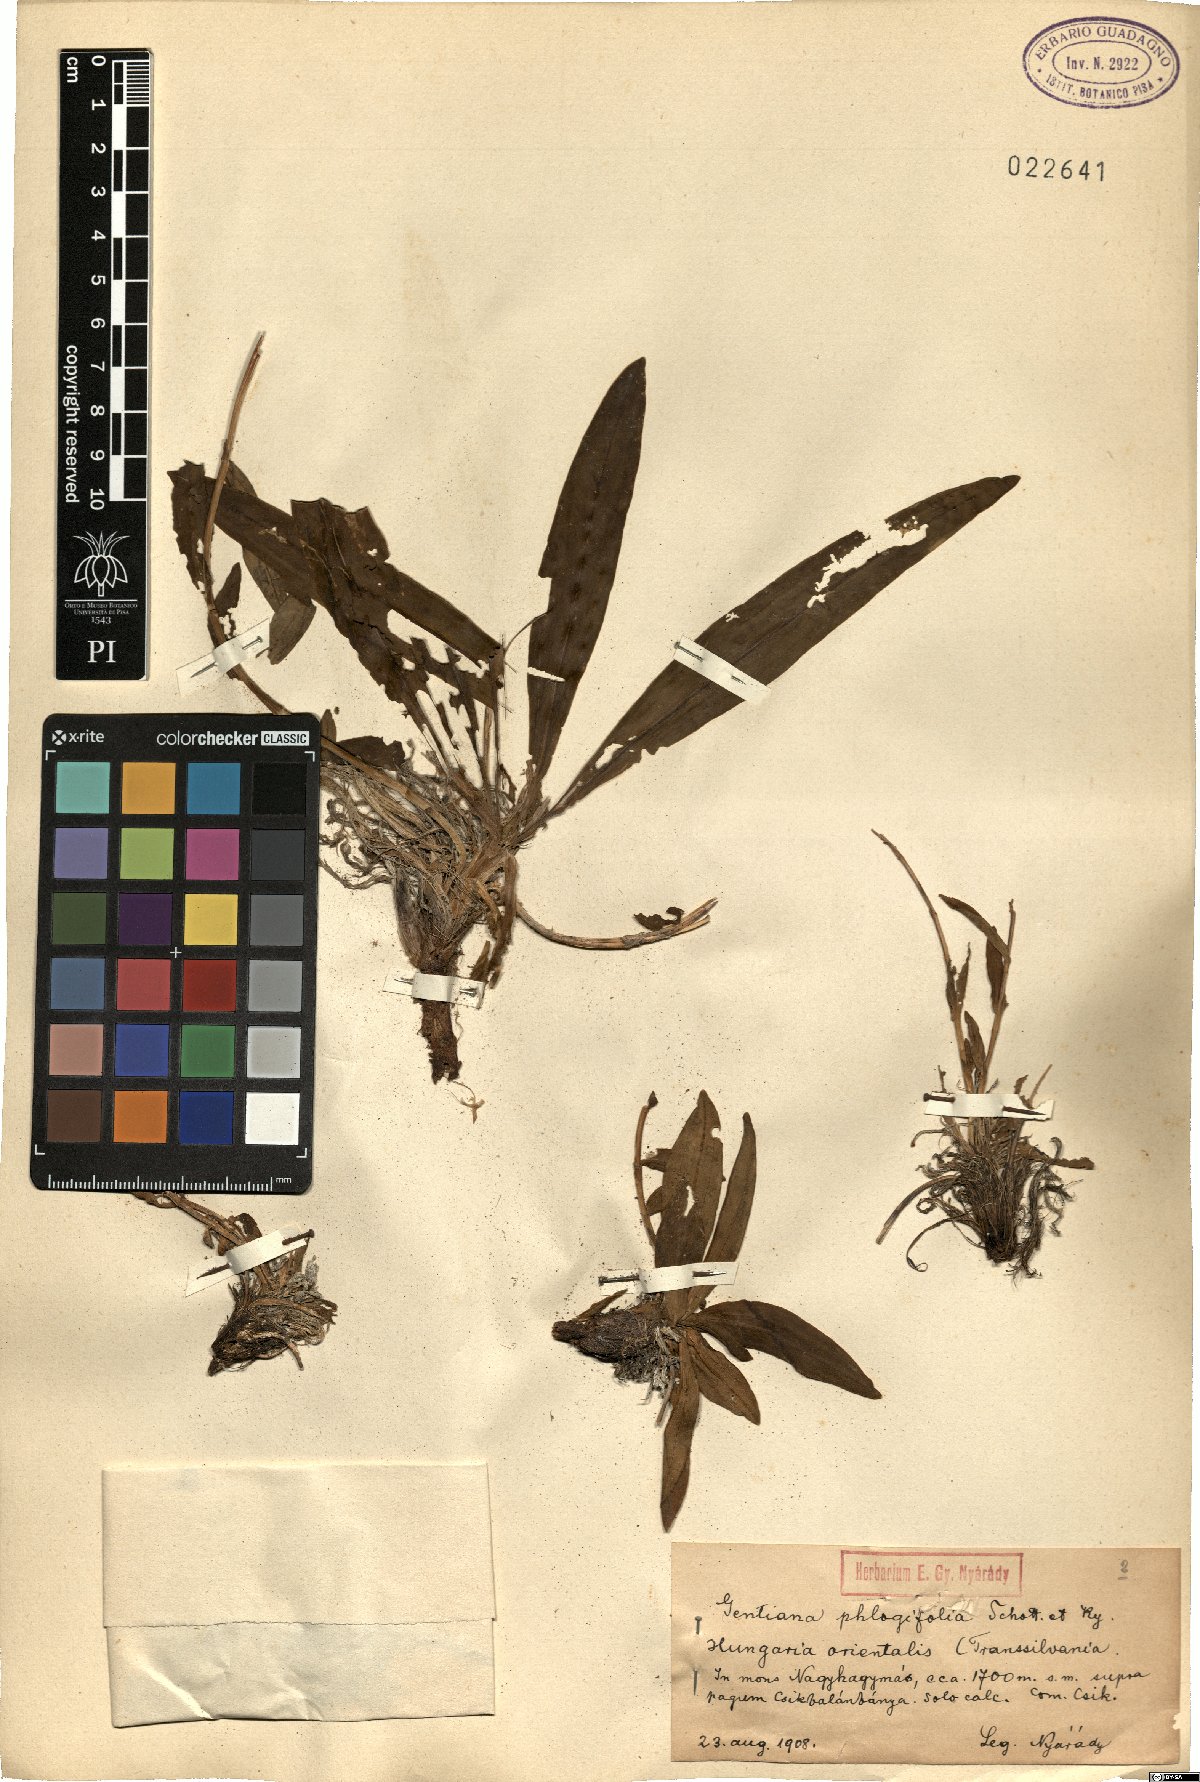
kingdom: Plantae
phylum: Tracheophyta
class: Magnoliopsida
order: Gentianales
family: Gentianaceae
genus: Gentiana
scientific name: Gentiana cruciata
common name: Cross gentian
